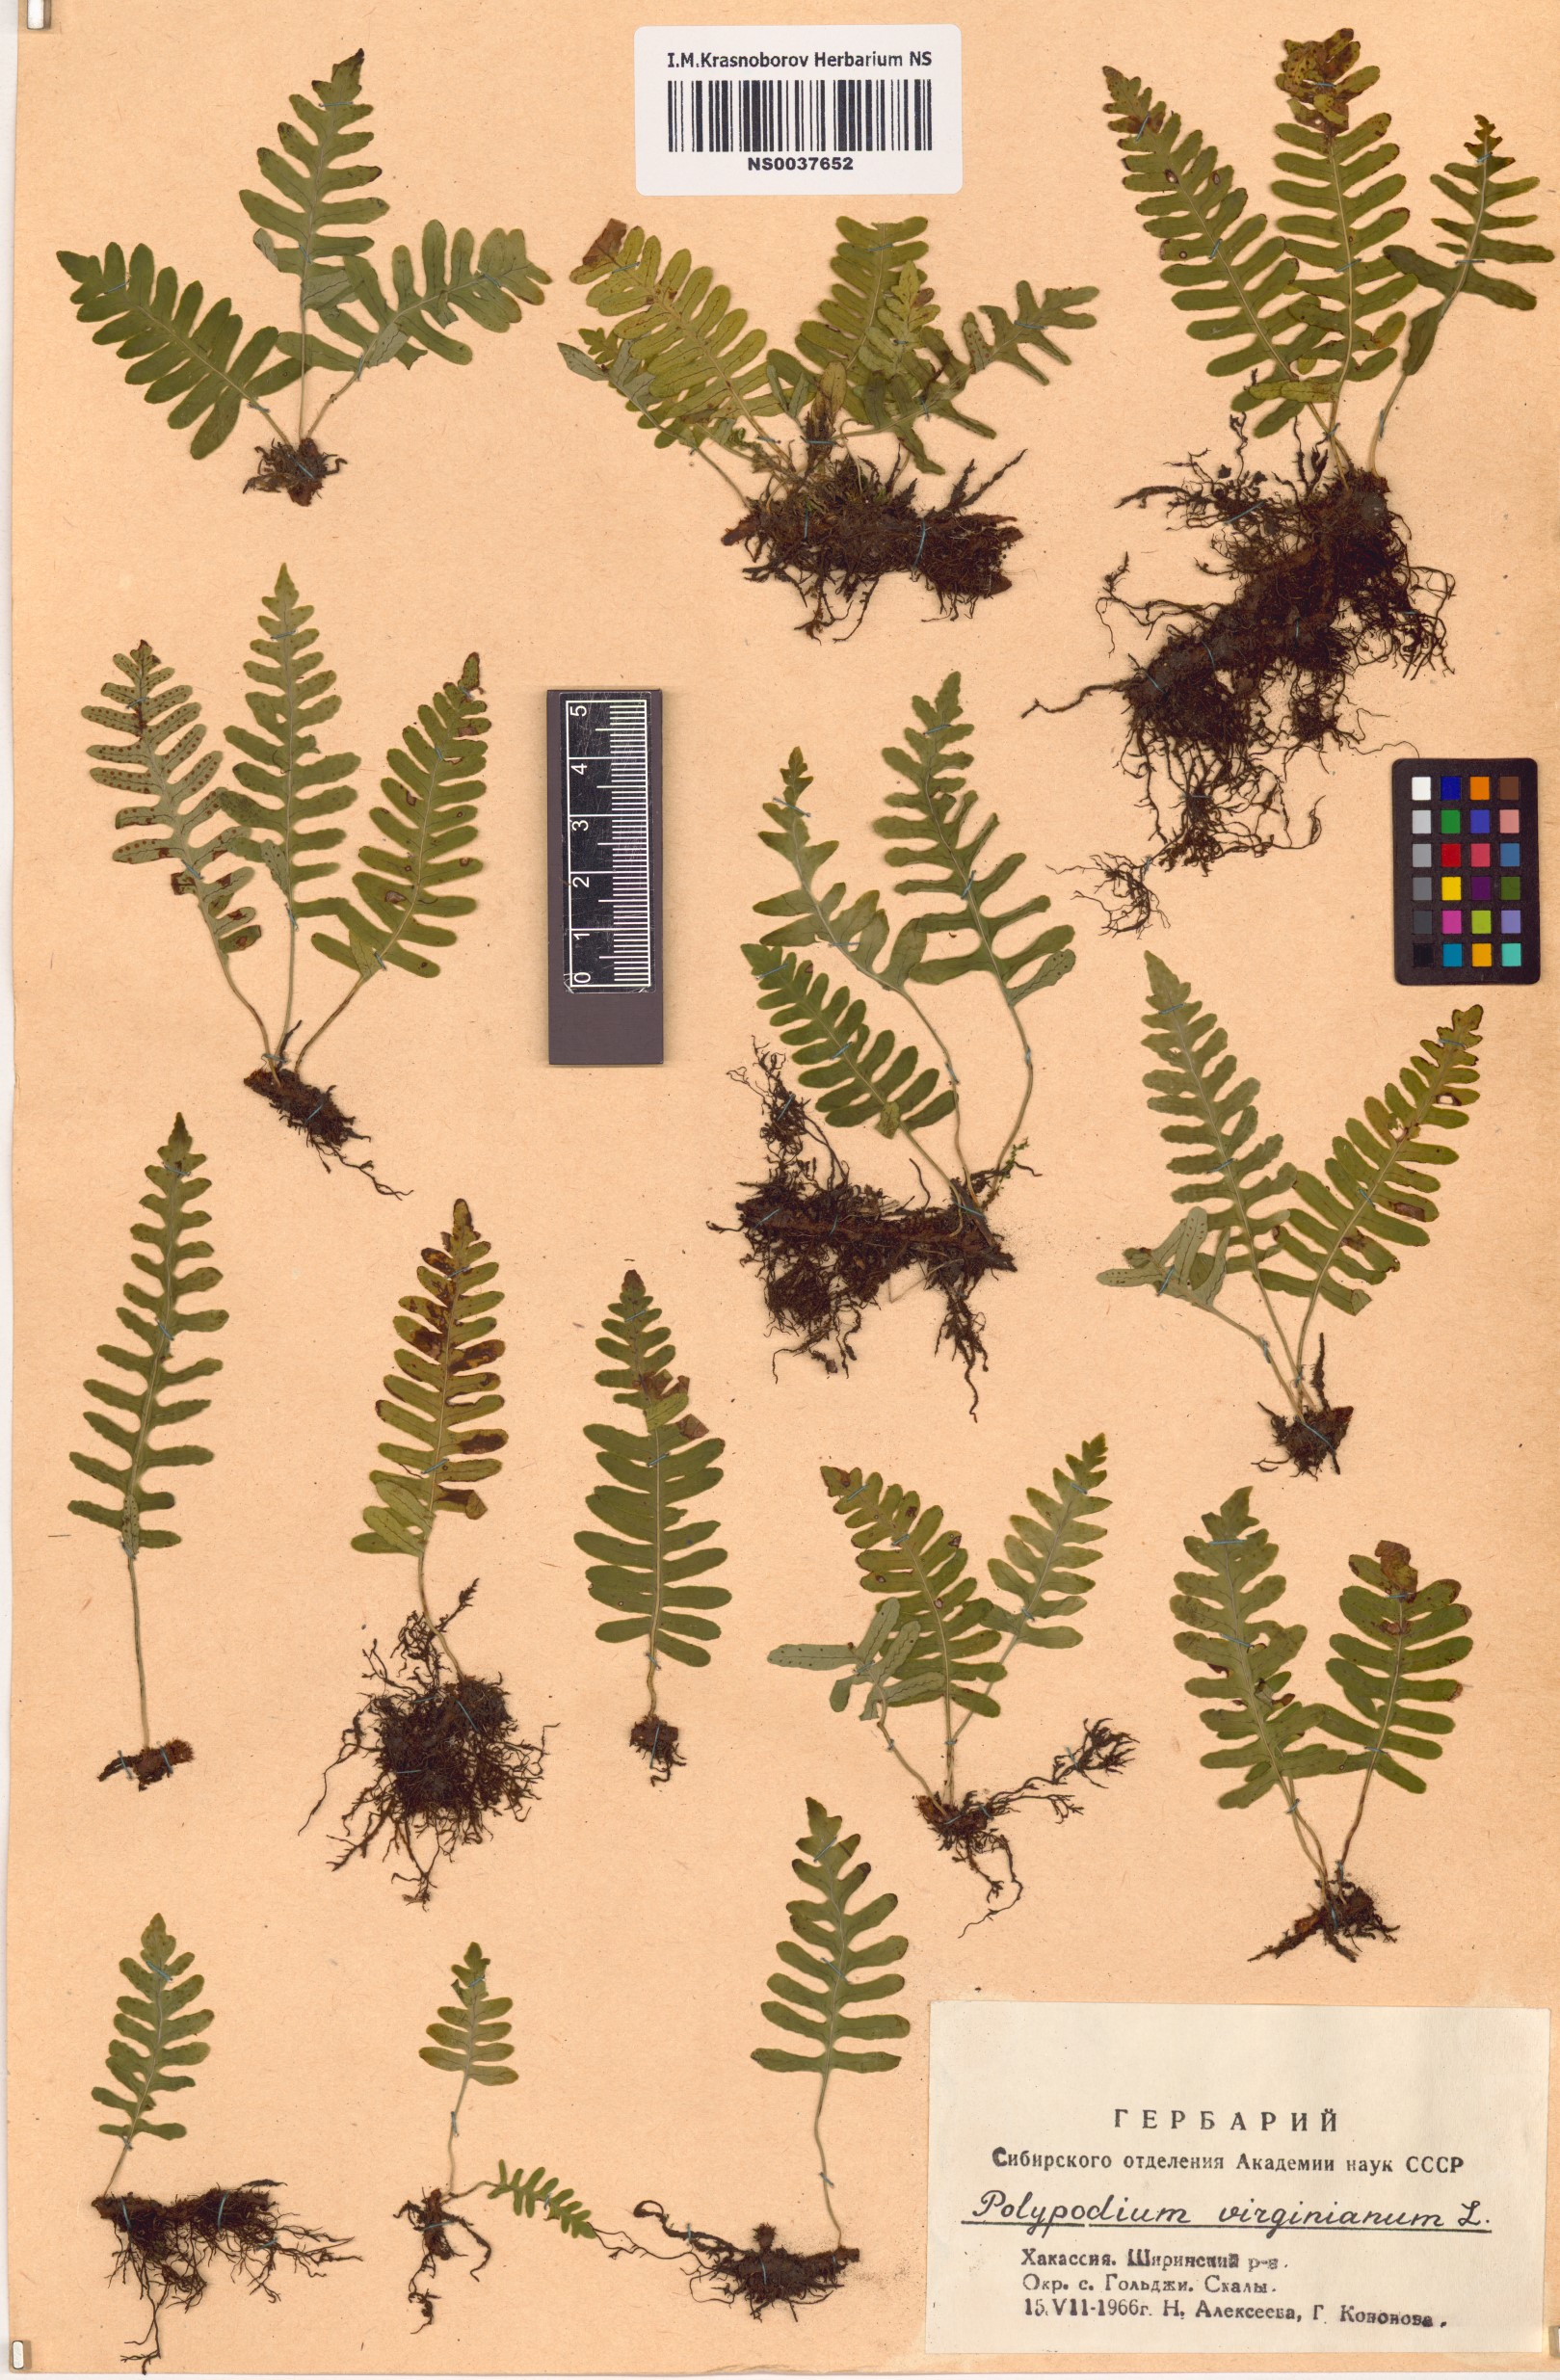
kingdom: Plantae
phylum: Tracheophyta
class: Polypodiopsida
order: Polypodiales
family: Polypodiaceae
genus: Polypodium
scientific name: Polypodium virginianum
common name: American wall fern
